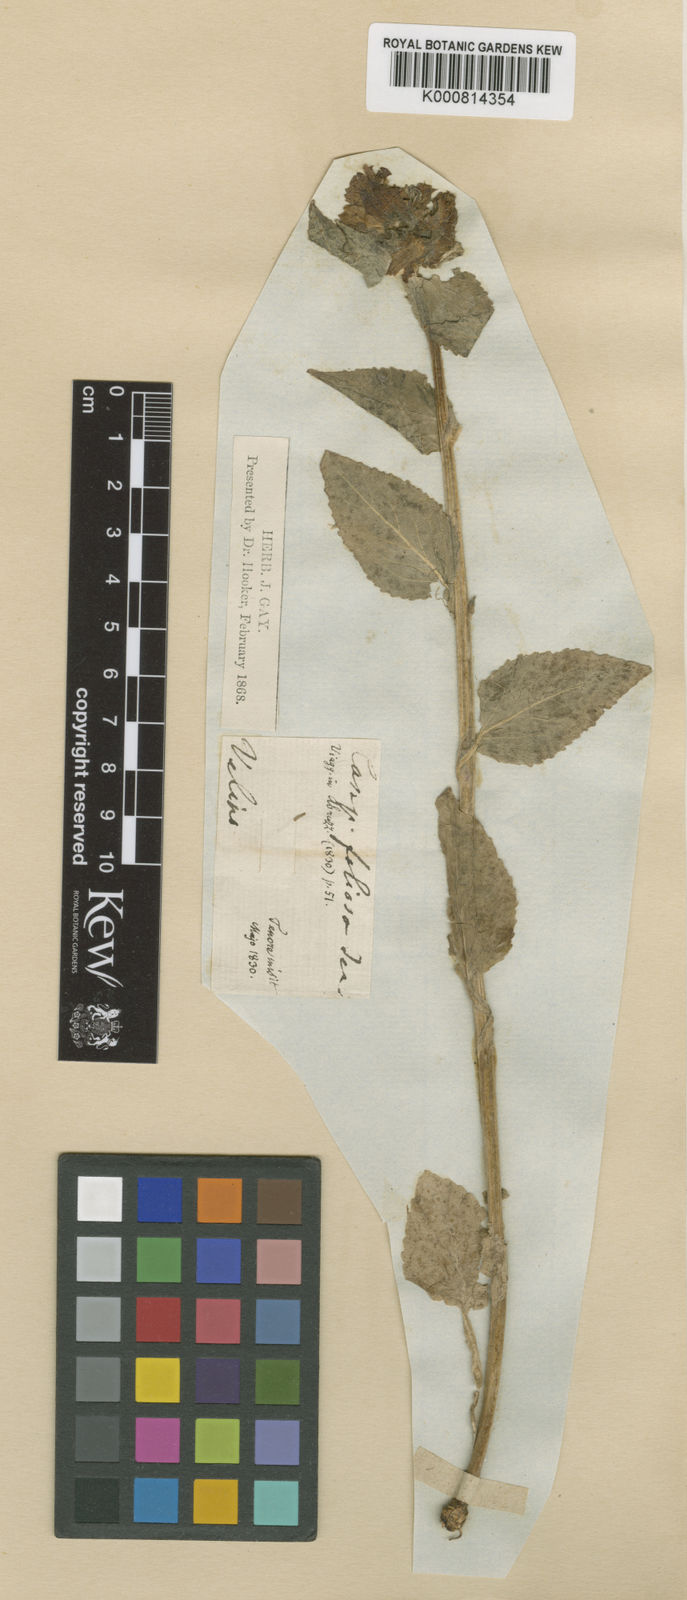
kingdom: Plantae
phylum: Tracheophyta
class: Magnoliopsida
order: Asterales
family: Campanulaceae
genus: Campanula
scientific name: Campanula foliosa
